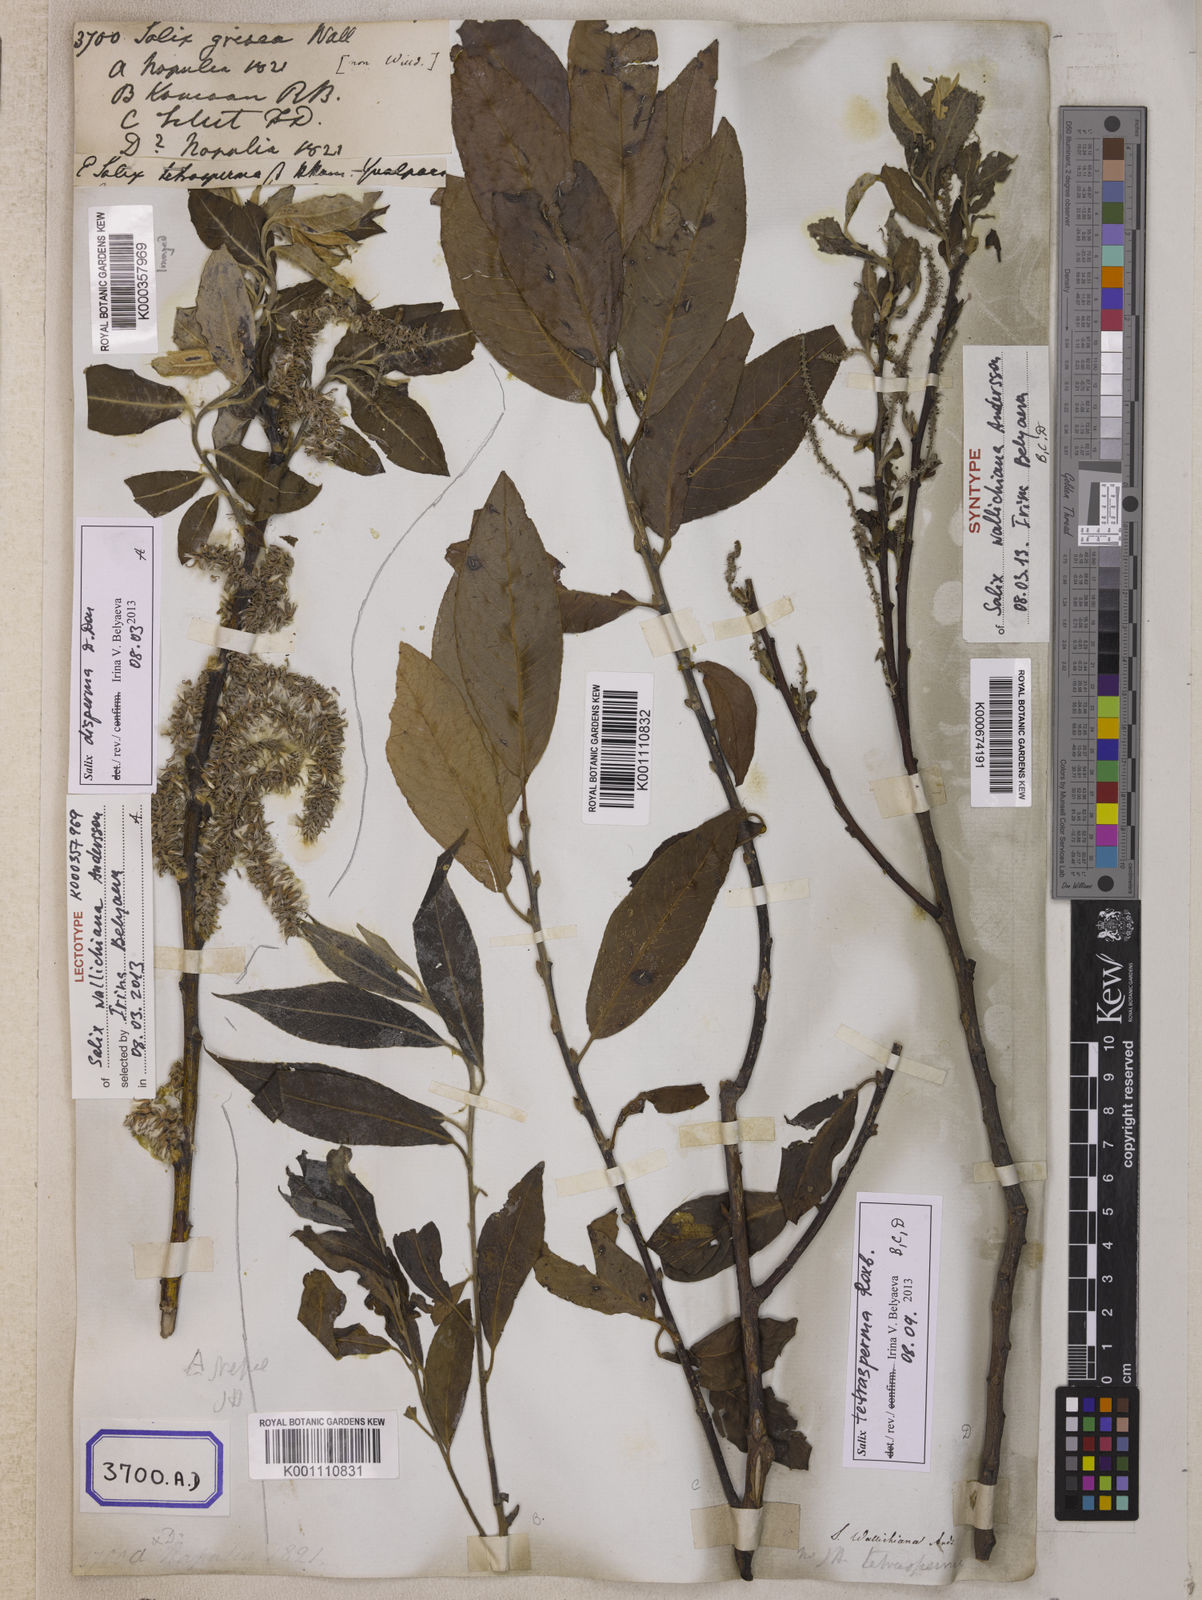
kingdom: Plantae
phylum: Tracheophyta
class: Magnoliopsida
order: Malpighiales
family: Salicaceae
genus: Salix
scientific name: Salix disperma
